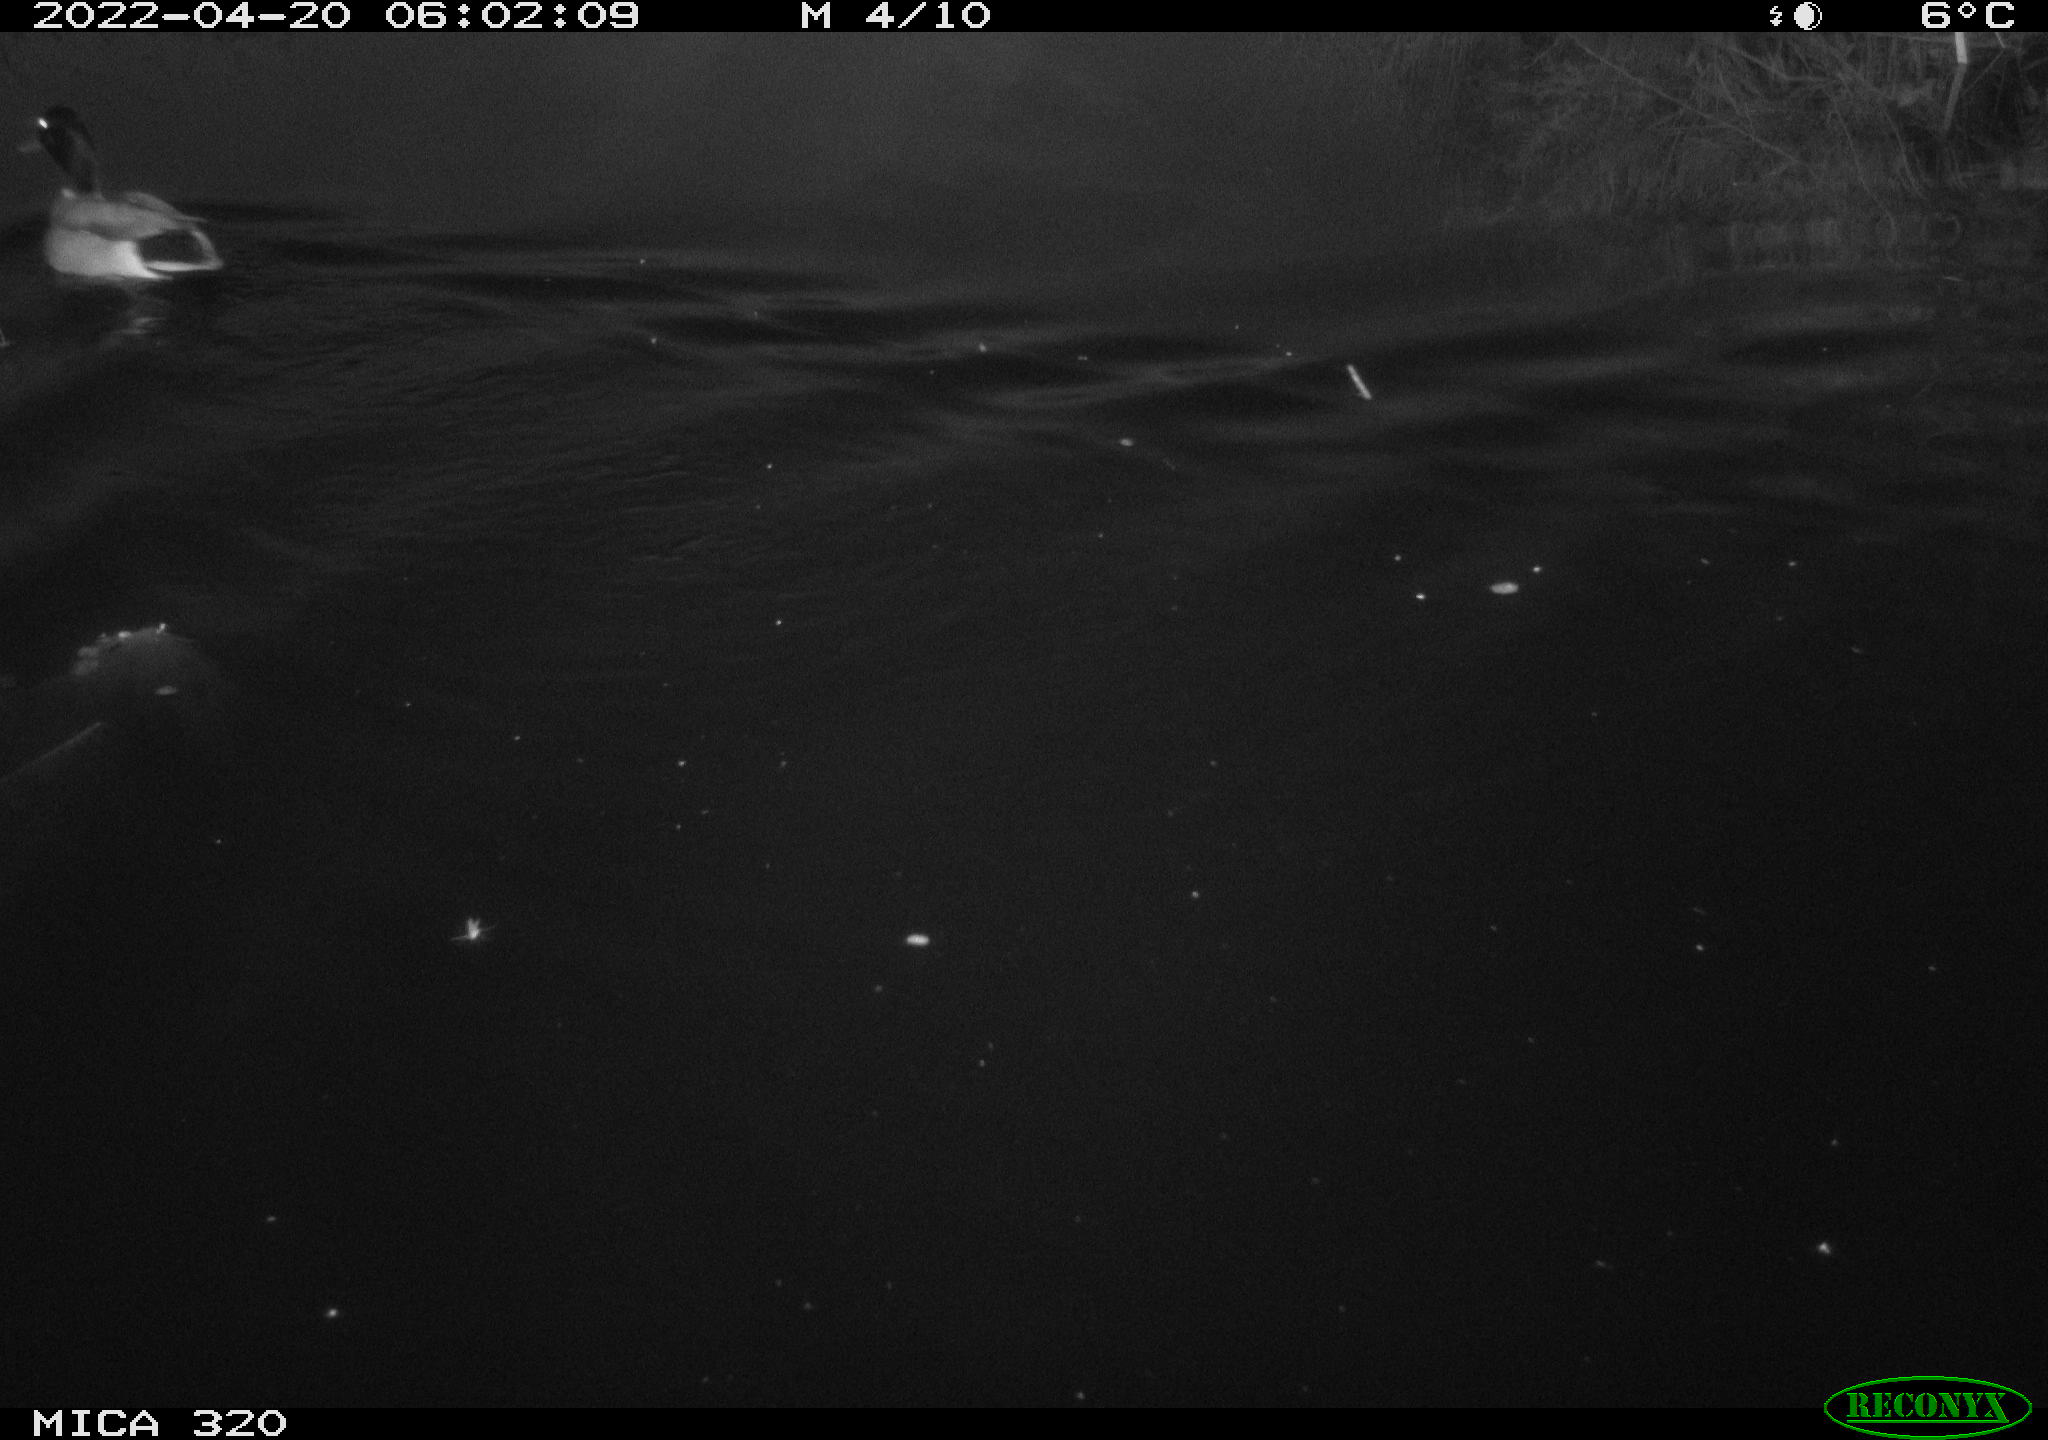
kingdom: Animalia
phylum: Chordata
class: Aves
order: Anseriformes
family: Anatidae
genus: Anas
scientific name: Anas platyrhynchos
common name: Mallard
